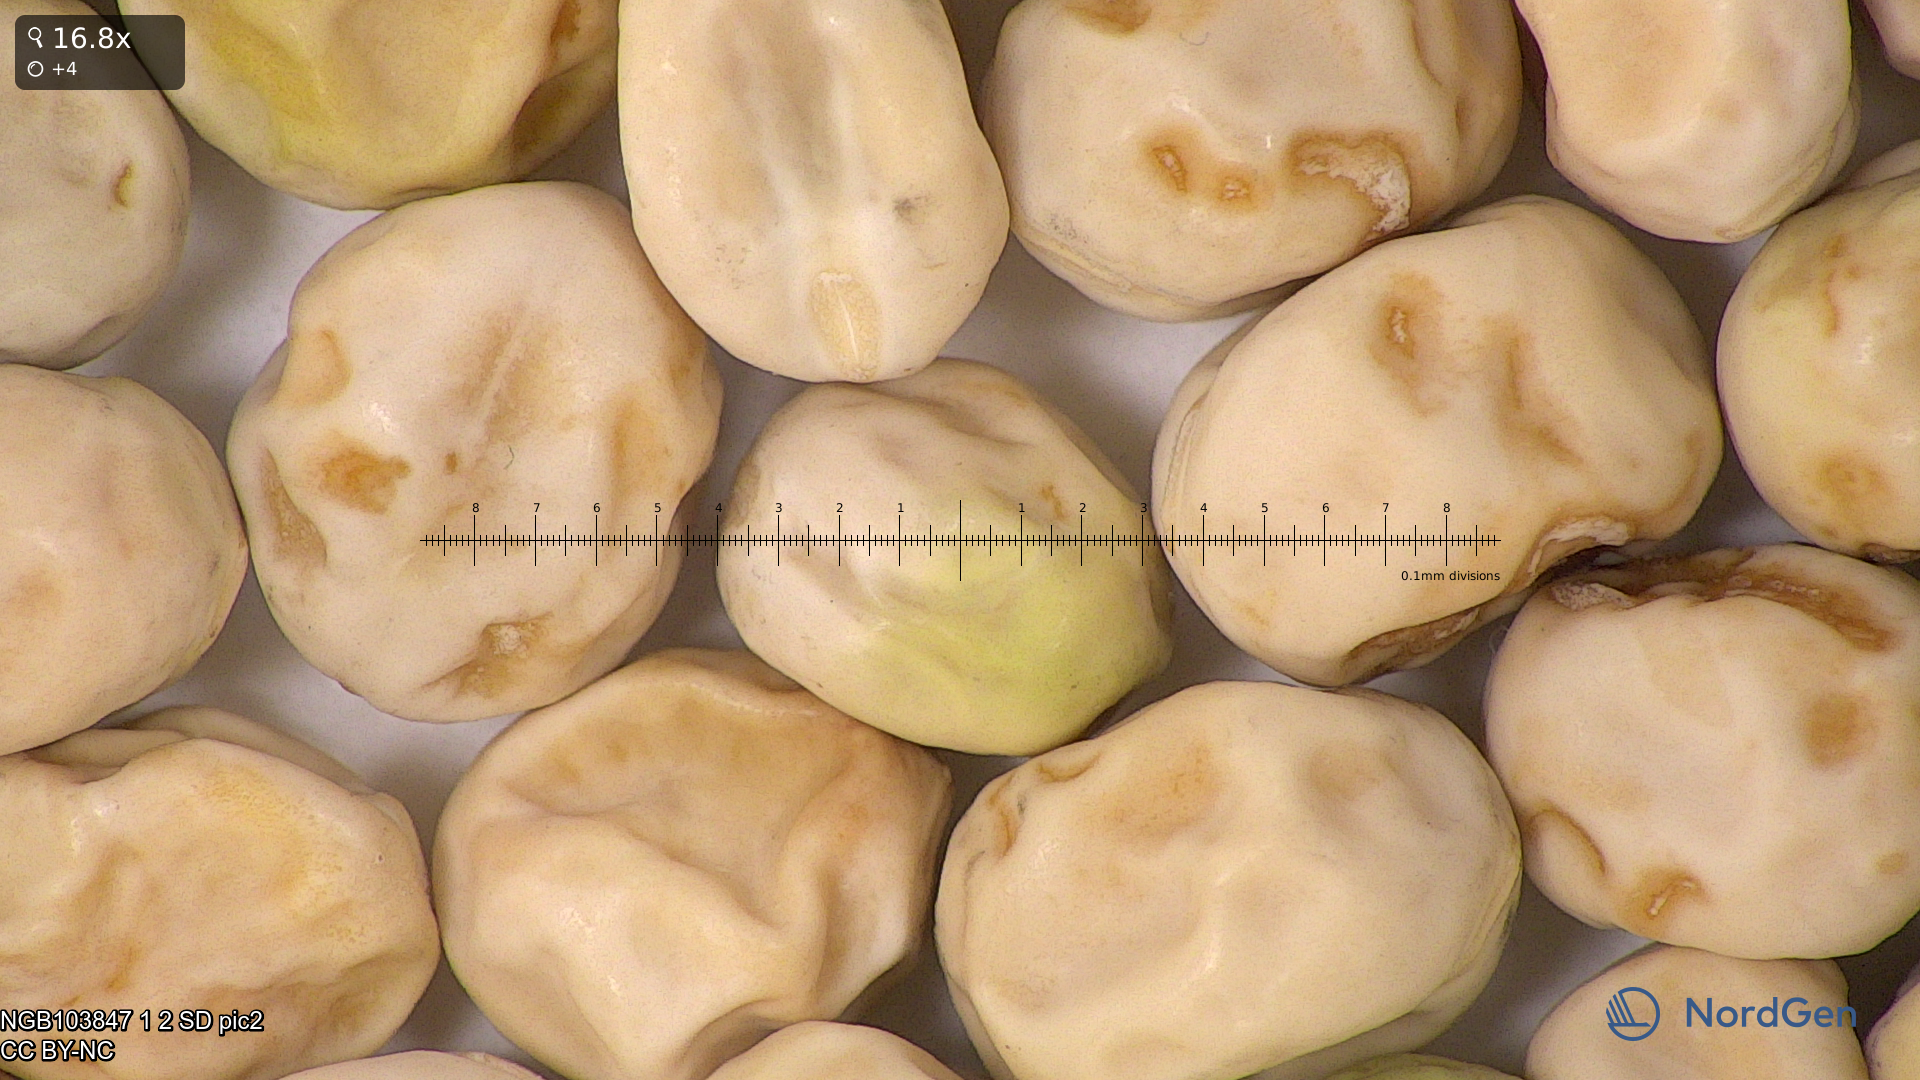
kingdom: Plantae
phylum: Tracheophyta
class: Magnoliopsida
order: Fabales
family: Fabaceae
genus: Lathyrus
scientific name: Lathyrus oleraceus
